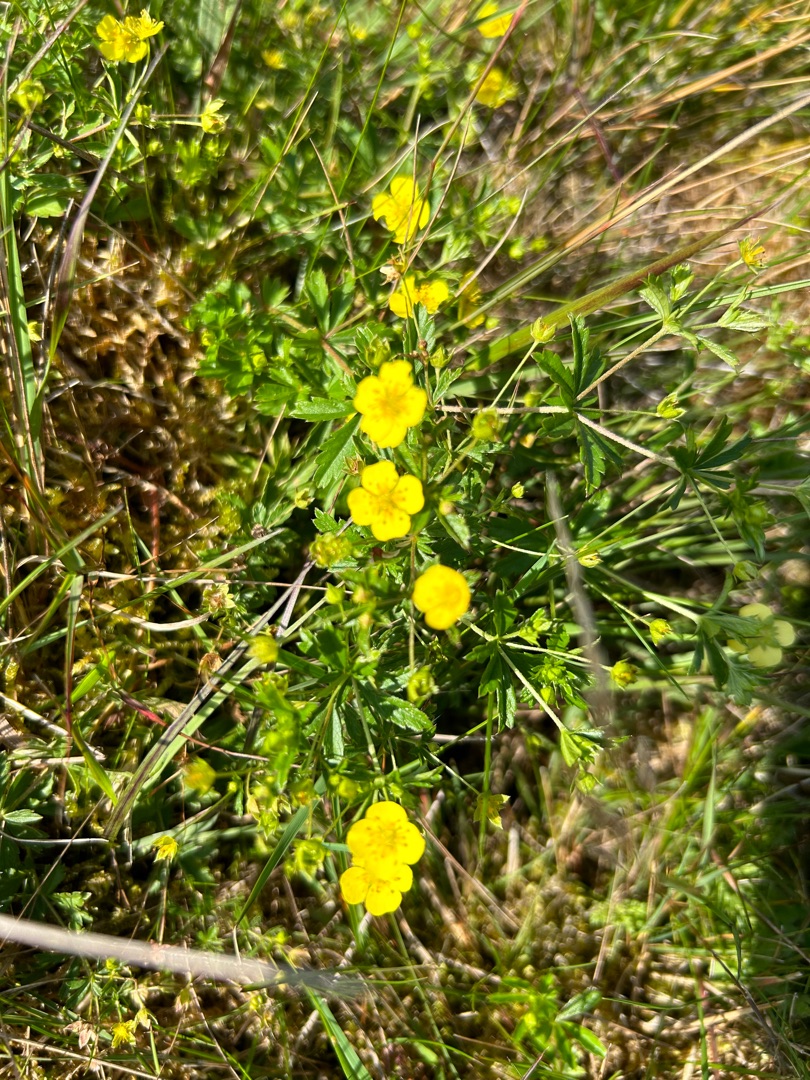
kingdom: Plantae
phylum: Tracheophyta
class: Magnoliopsida
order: Rosales
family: Rosaceae
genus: Potentilla
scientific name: Potentilla erecta
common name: Tormentil
